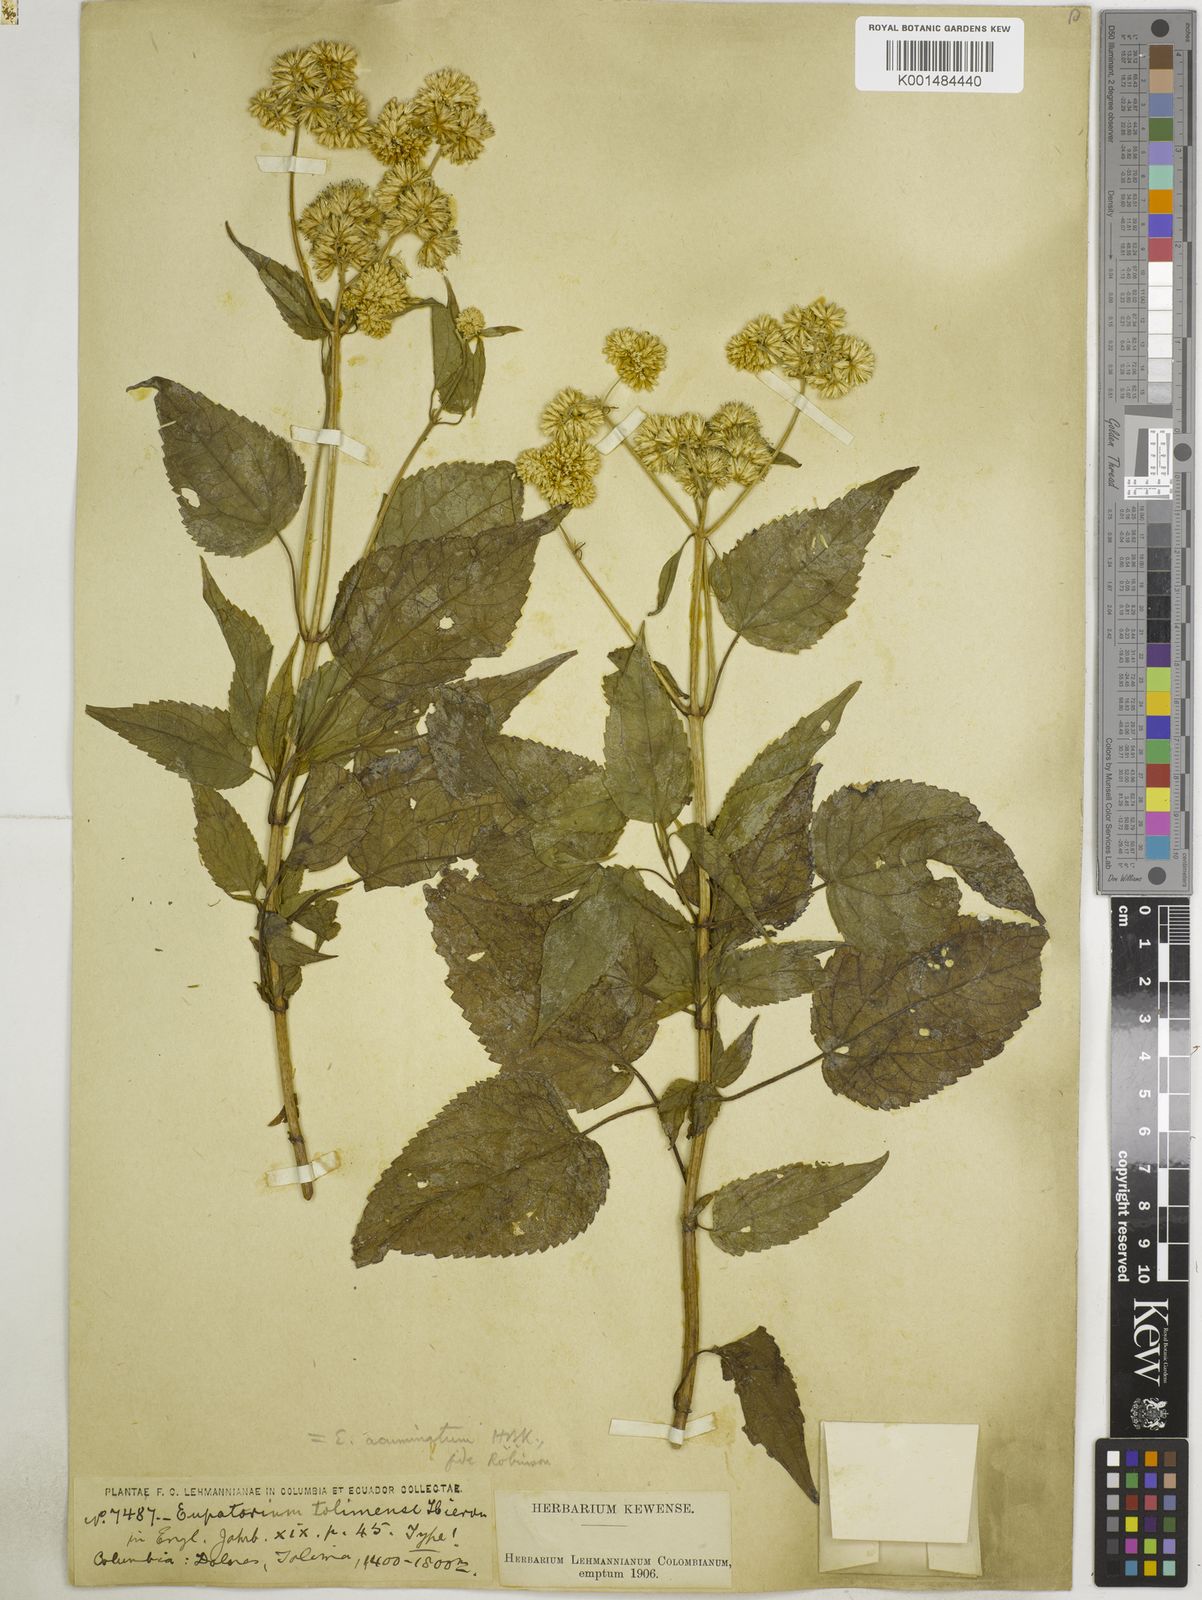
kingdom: Plantae
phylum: Tracheophyta
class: Magnoliopsida
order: Asterales
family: Asteraceae
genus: Critoniella
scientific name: Critoniella acuminata
